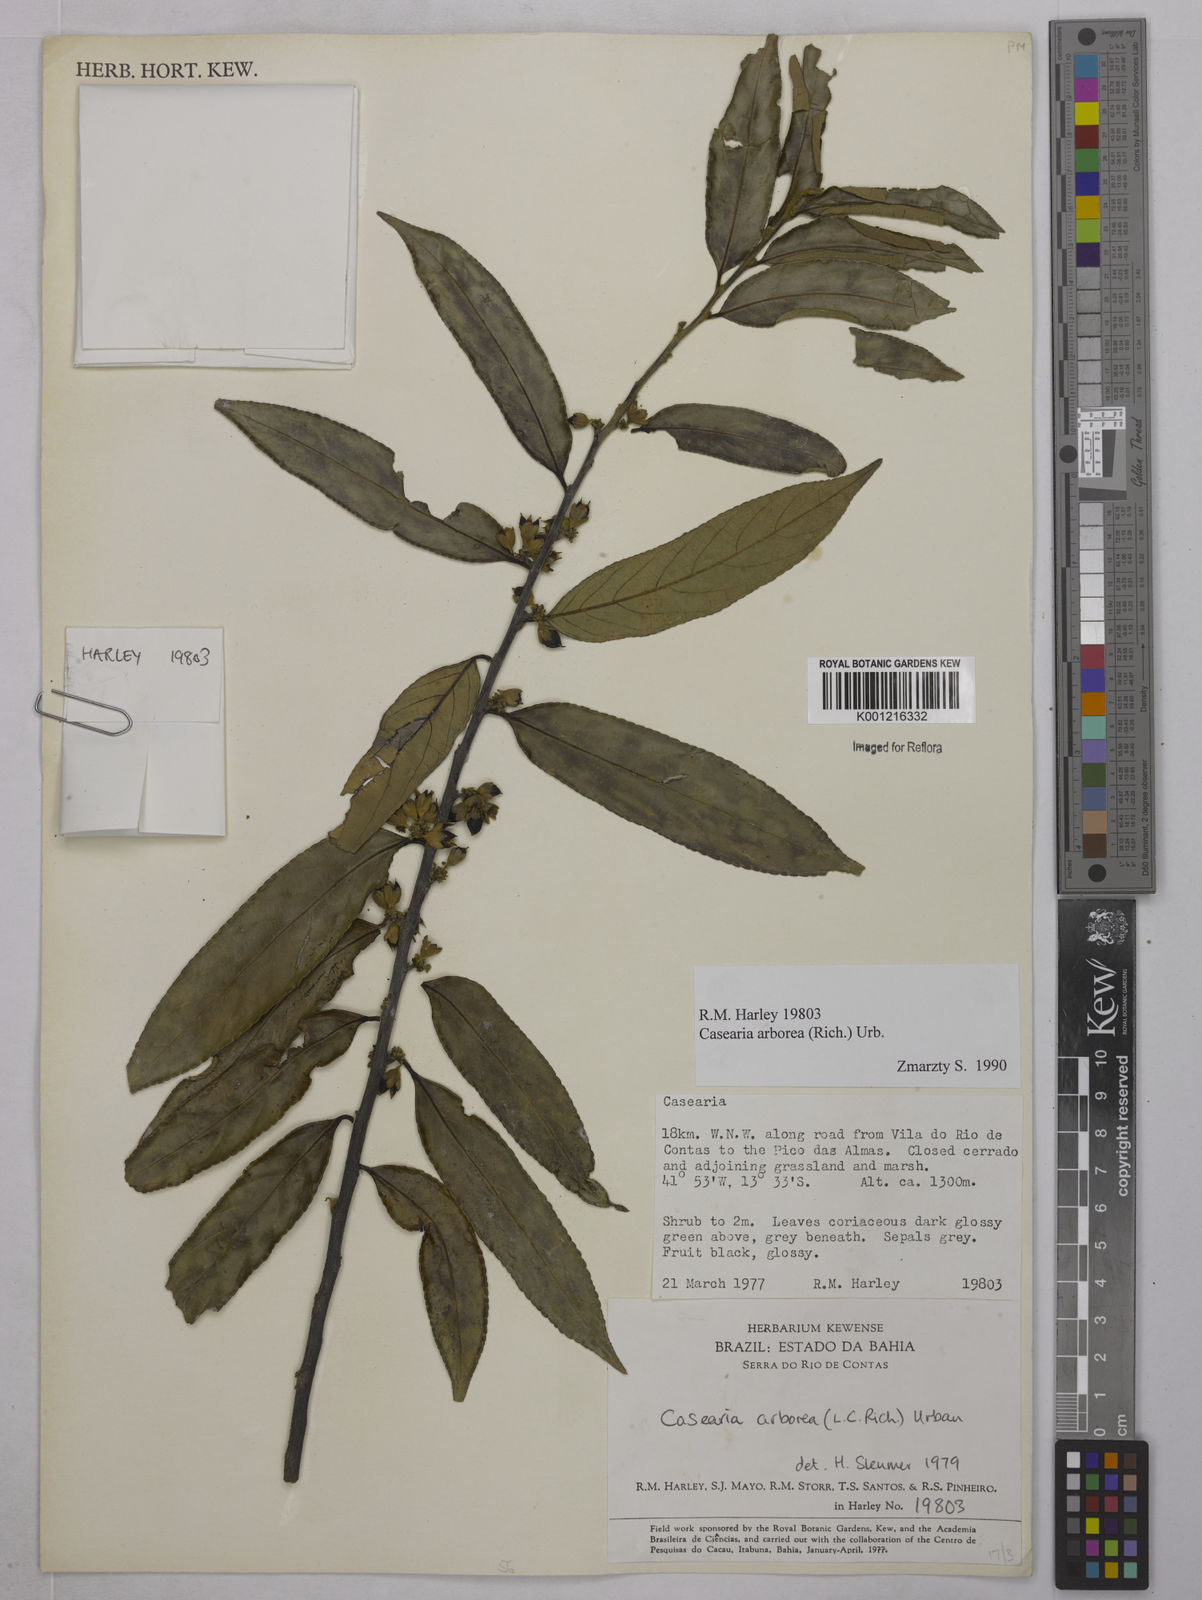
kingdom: Plantae
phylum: Tracheophyta
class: Magnoliopsida
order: Malpighiales
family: Salicaceae
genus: Casearia
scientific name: Casearia arborea
